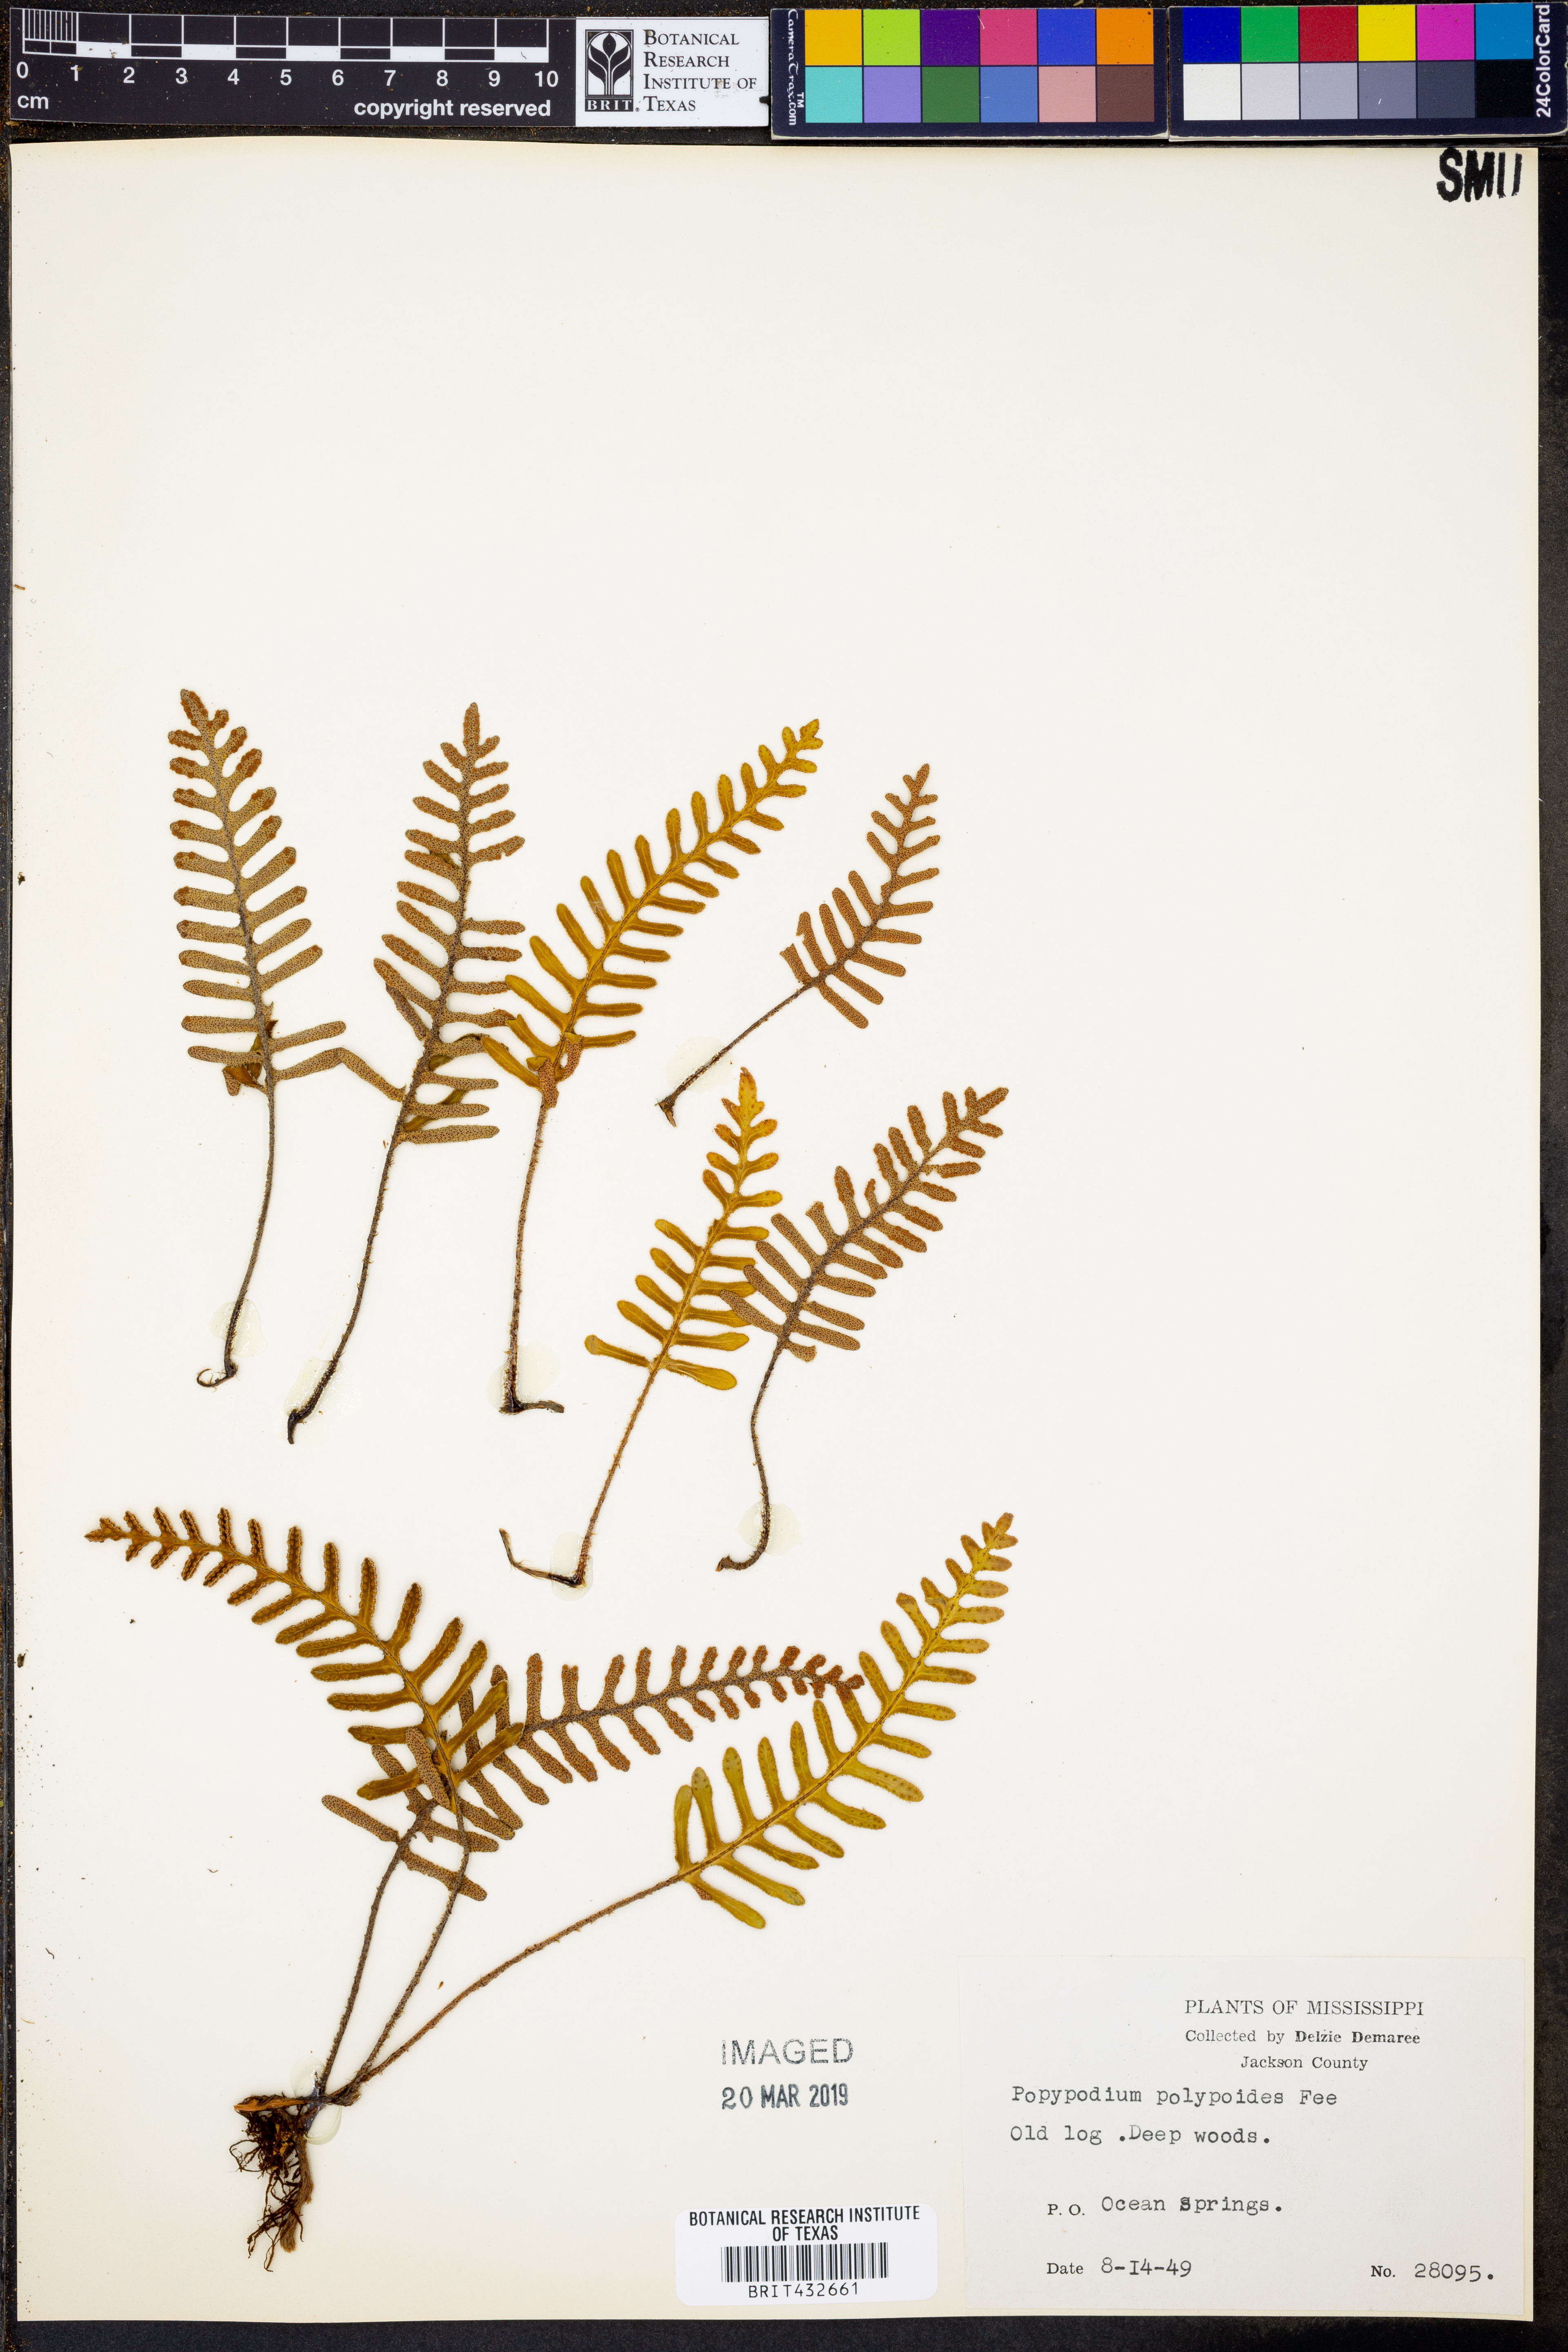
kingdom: Plantae
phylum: Tracheophyta
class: Polypodiopsida
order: Polypodiales
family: Polypodiaceae
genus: Pleopeltis
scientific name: Pleopeltis polypodioides
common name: Resurrection fern
